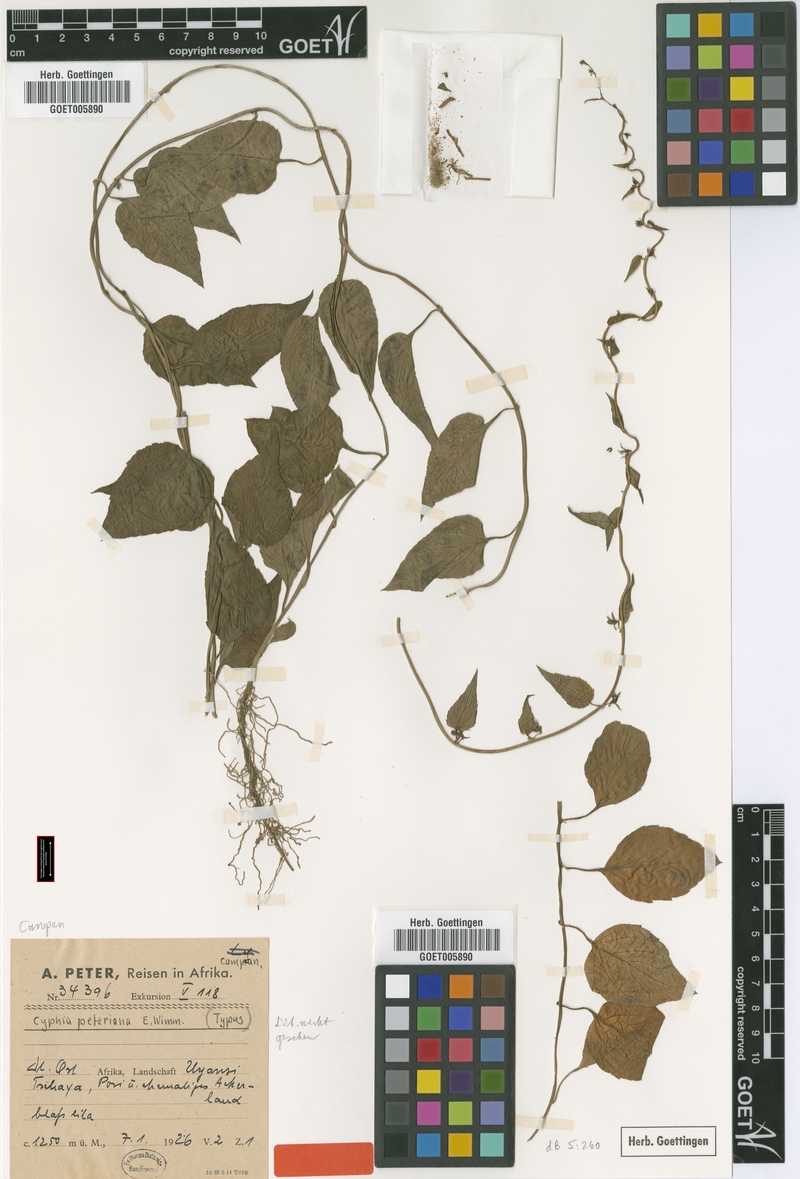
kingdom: Plantae
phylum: Tracheophyta
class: Magnoliopsida
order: Asterales
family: Campanulaceae
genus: Cyphia
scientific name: Cyphia lasiandra
